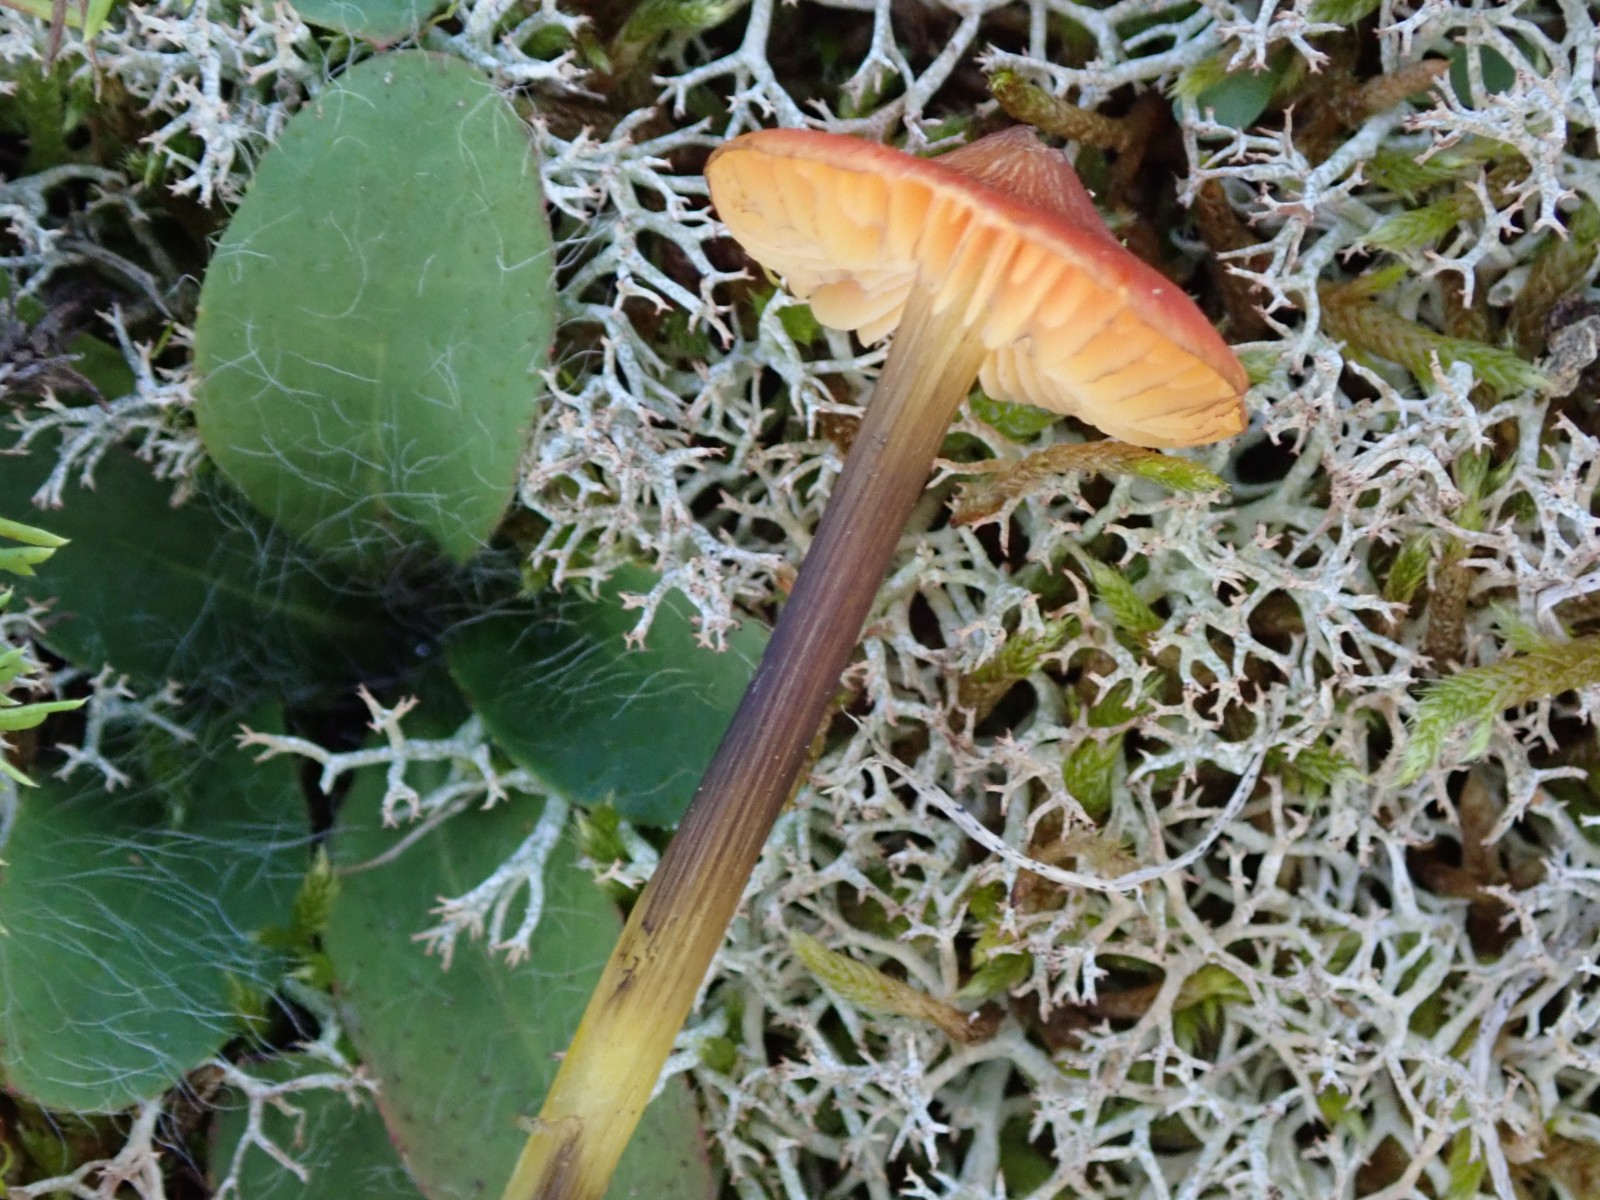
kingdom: Fungi
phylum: Basidiomycota
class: Agaricomycetes
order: Agaricales
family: Hygrophoraceae
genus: Hygrocybe
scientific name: Hygrocybe conica
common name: kegle-vokshat
